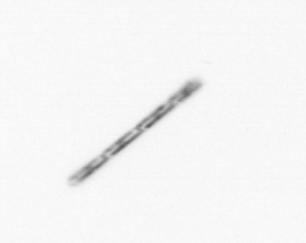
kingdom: Chromista
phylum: Ochrophyta
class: Bacillariophyceae
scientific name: Bacillariophyceae
